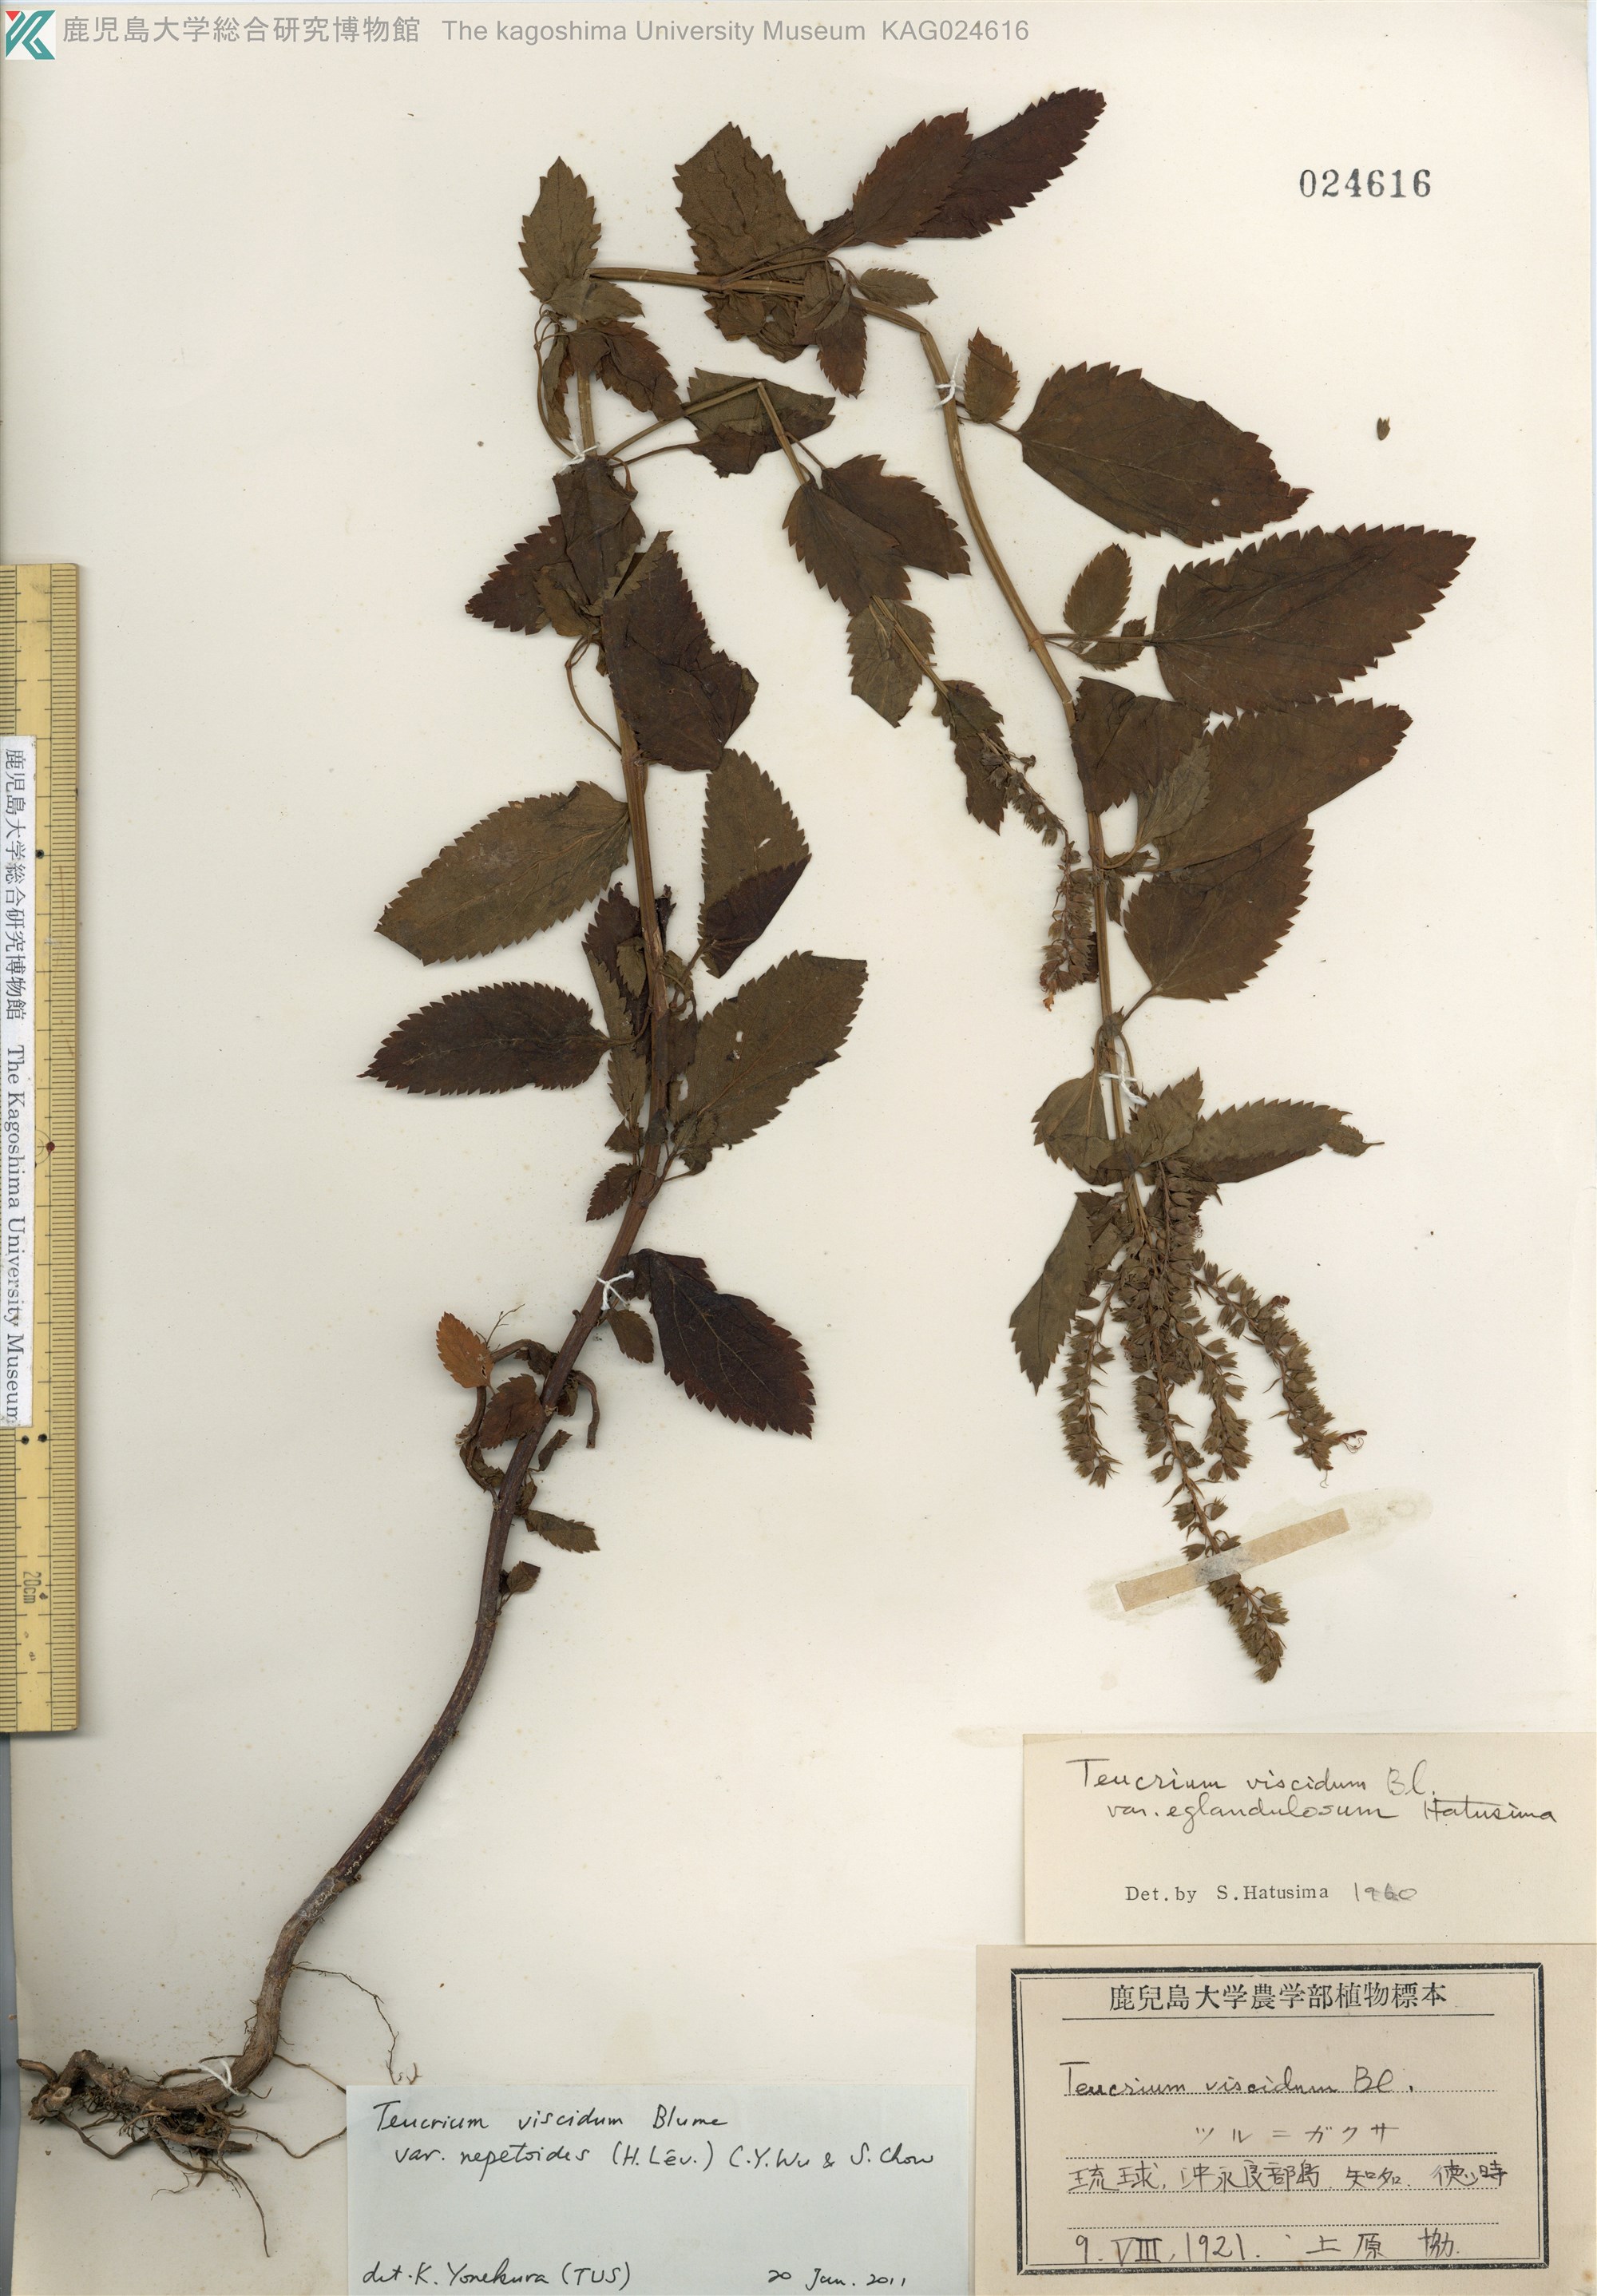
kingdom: Plantae
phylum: Tracheophyta
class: Magnoliopsida
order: Lamiales
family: Lamiaceae
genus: Teucrium
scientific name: Teucrium viscidum
